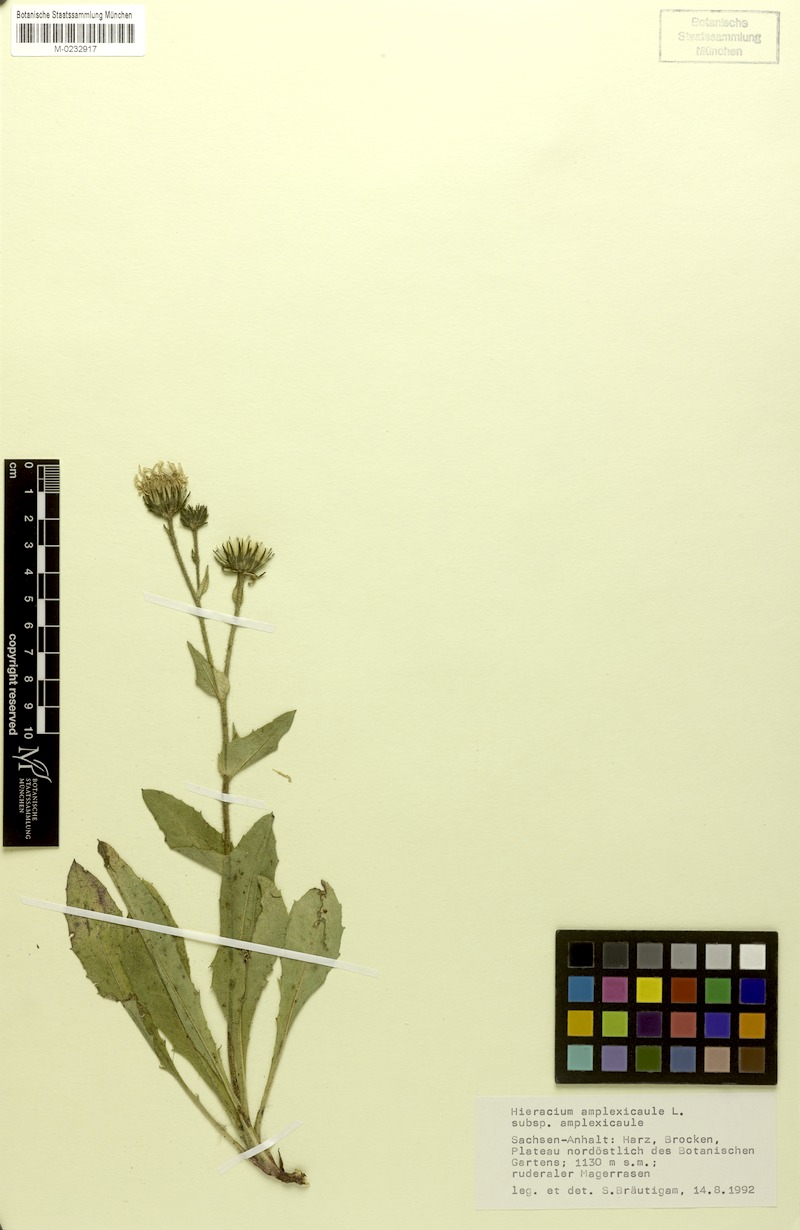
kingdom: Plantae
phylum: Tracheophyta
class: Magnoliopsida
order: Asterales
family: Asteraceae
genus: Hieracium
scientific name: Hieracium amplexicaule
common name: Sticky hawkweed
